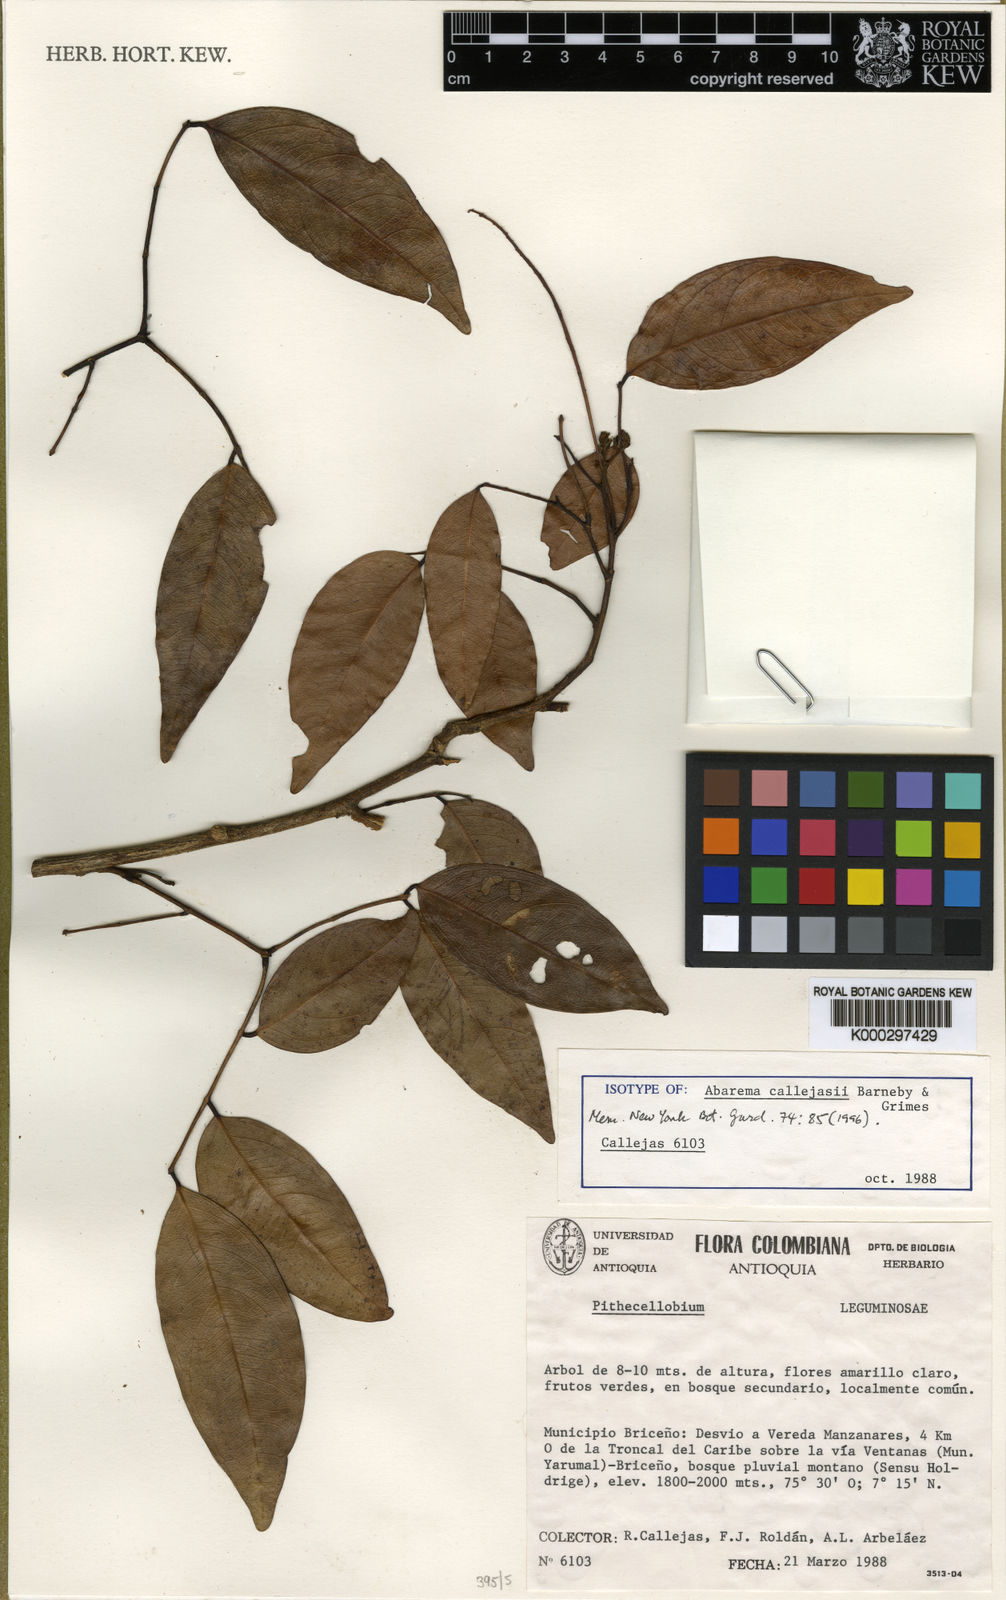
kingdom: Plantae
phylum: Tracheophyta
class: Magnoliopsida
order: Fabales
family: Fabaceae
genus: Punjuba
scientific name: Punjuba callejasii
